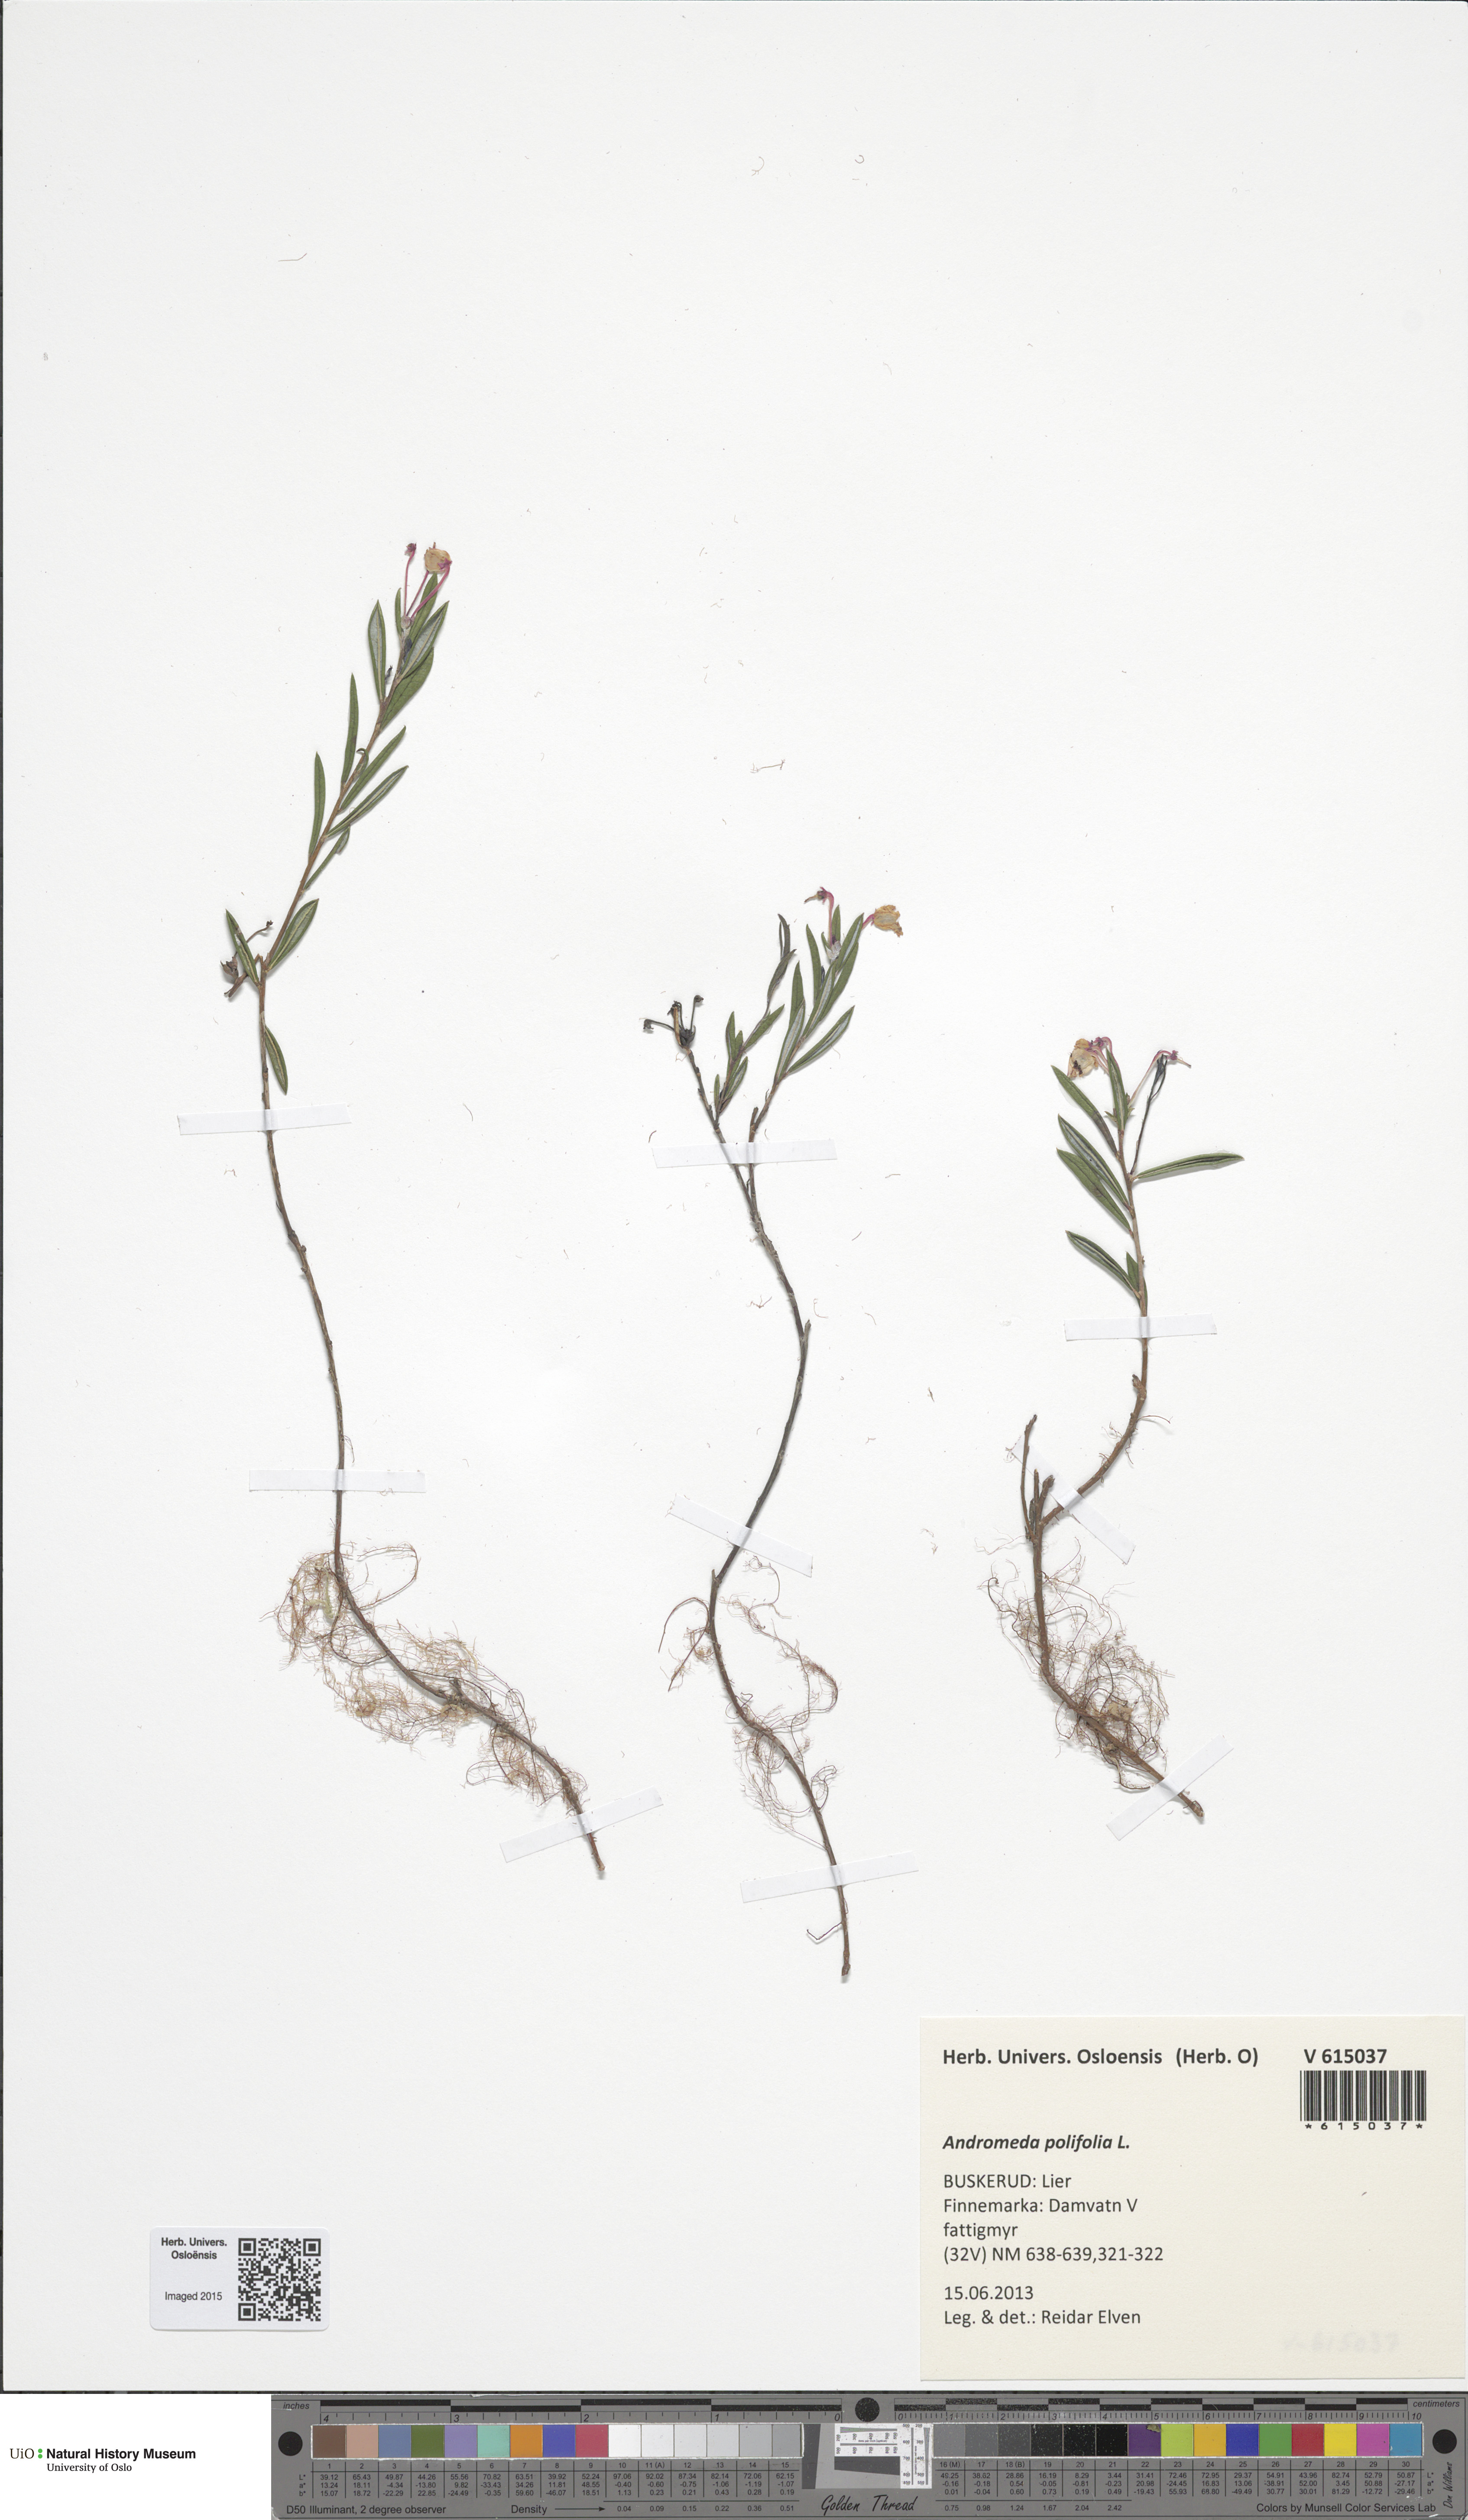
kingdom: Plantae
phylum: Tracheophyta
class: Magnoliopsida
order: Ericales
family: Ericaceae
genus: Andromeda
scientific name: Andromeda polifolia
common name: Bog-rosemary
